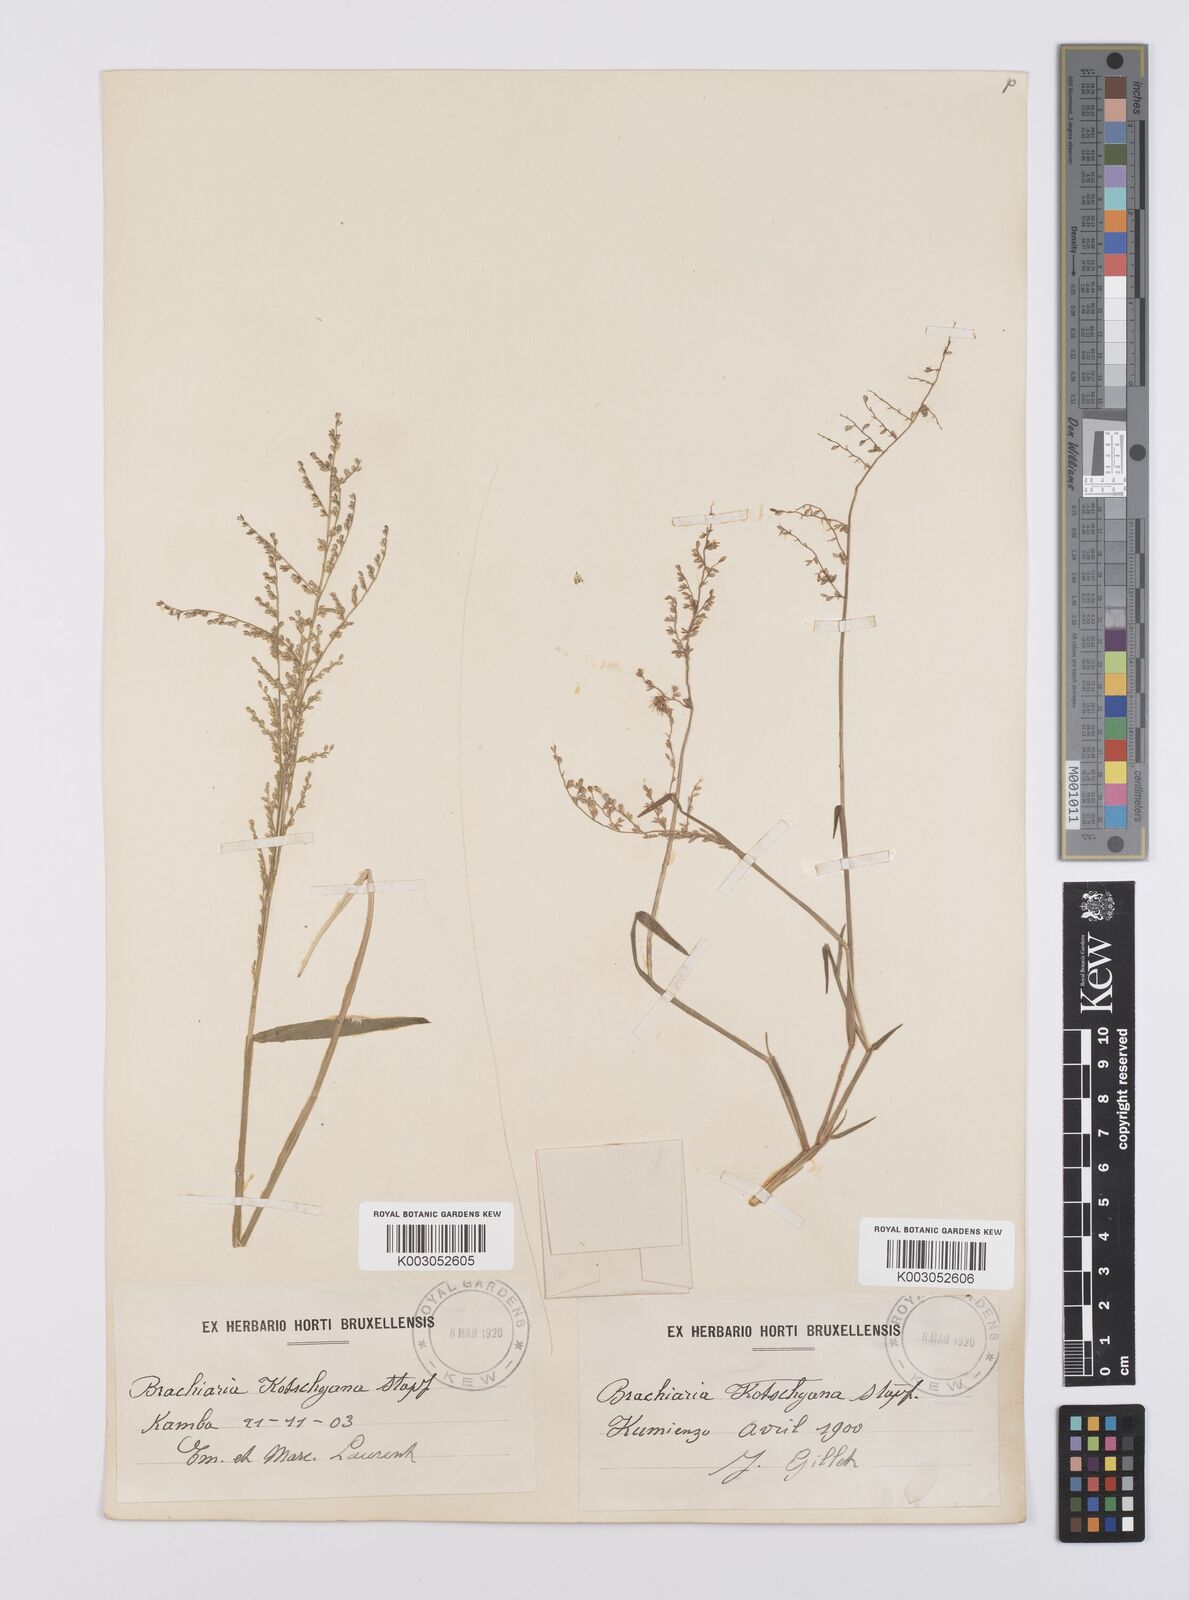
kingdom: Plantae
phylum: Tracheophyta
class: Liliopsida
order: Poales
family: Poaceae
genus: Urochloa
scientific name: Urochloa comata
